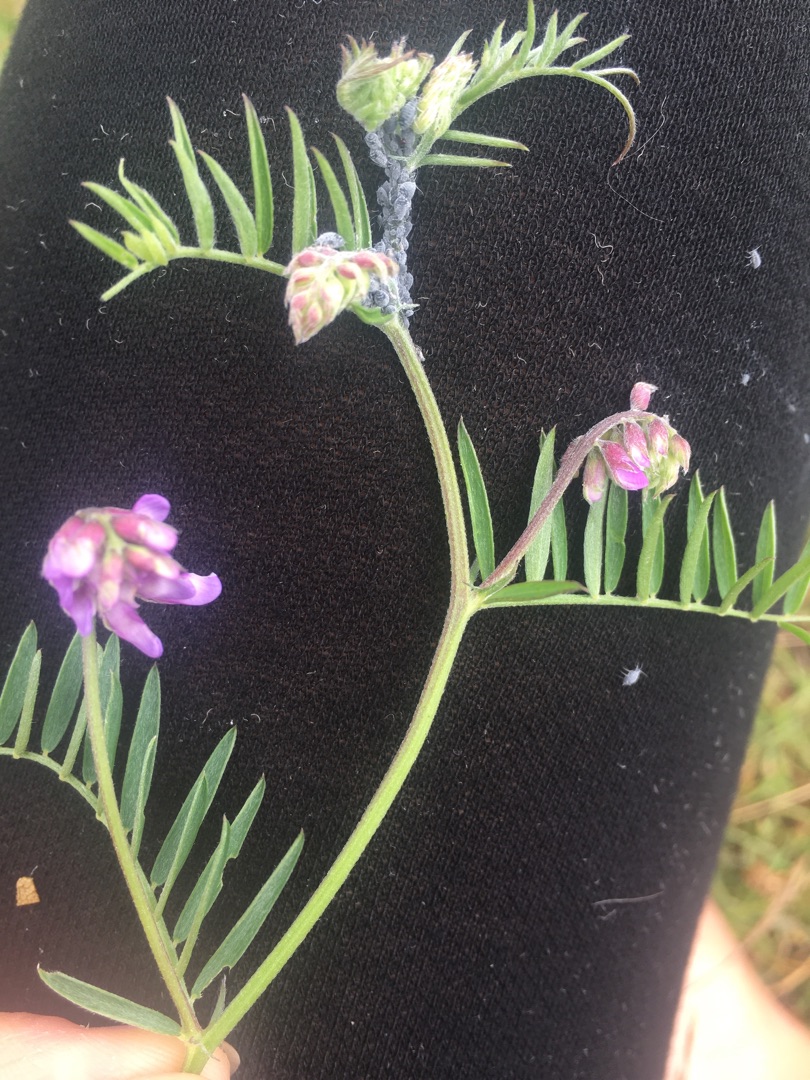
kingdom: Plantae
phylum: Tracheophyta
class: Magnoliopsida
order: Fabales
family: Fabaceae
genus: Vicia
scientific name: Vicia cracca
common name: Muse-vikke
